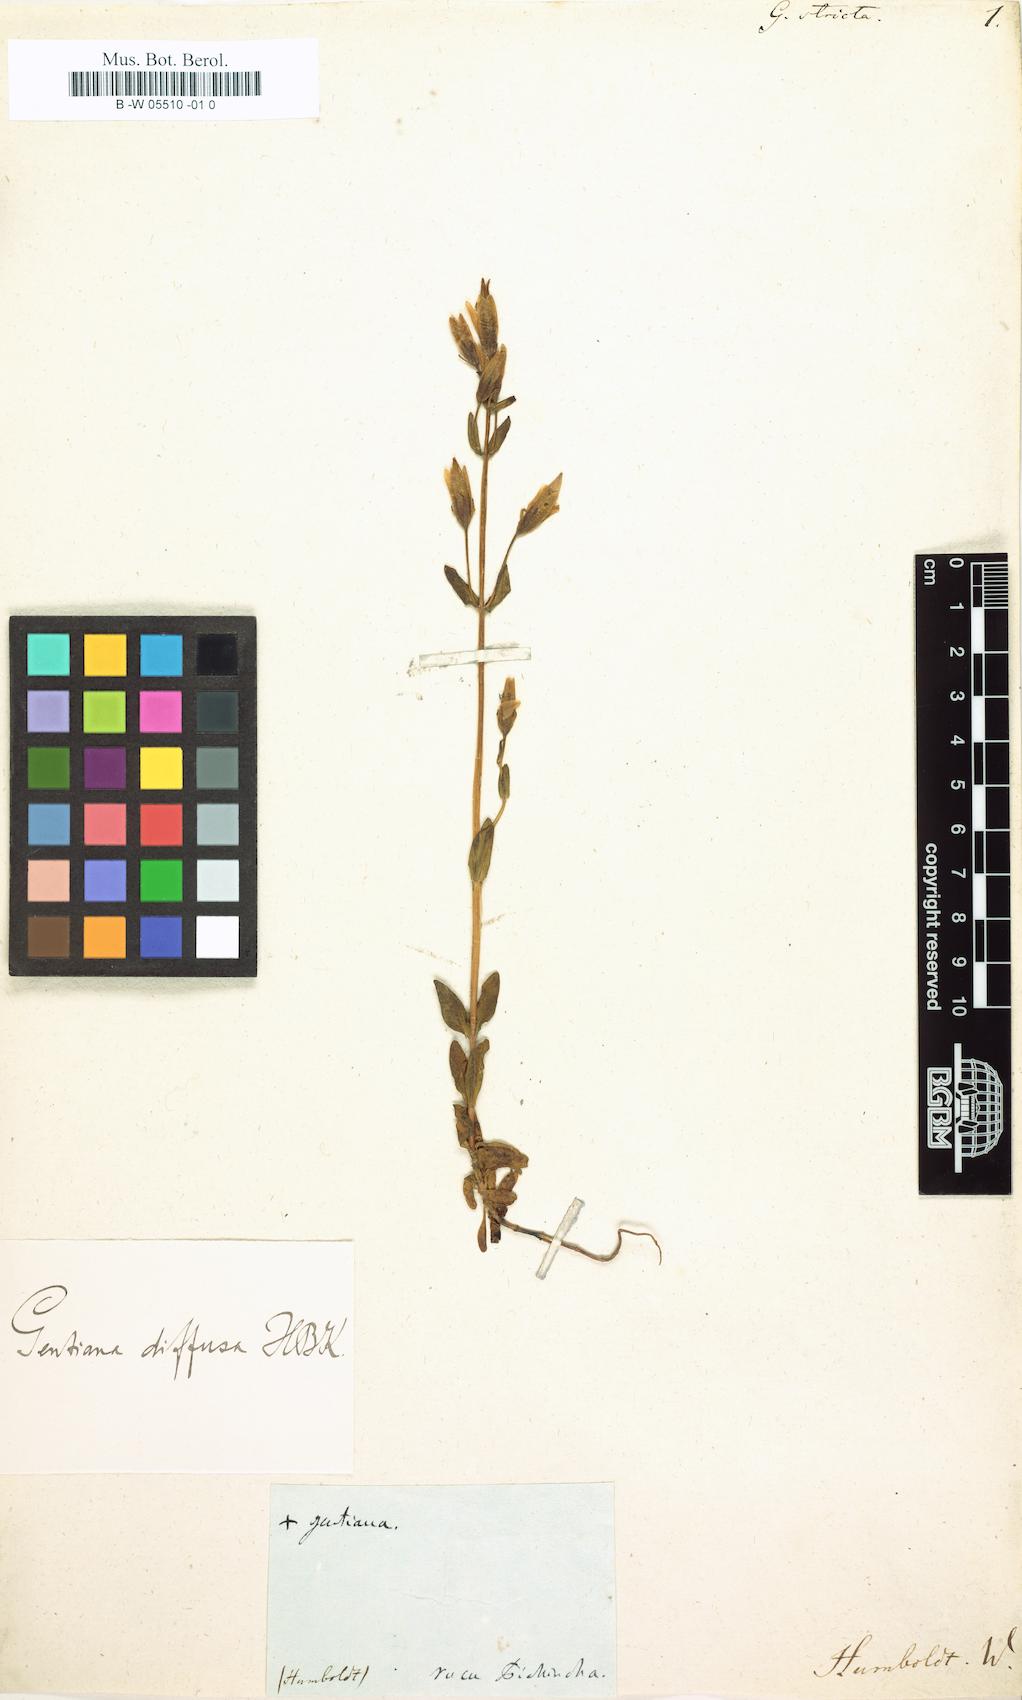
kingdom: Plantae
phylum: Tracheophyta
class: Magnoliopsida
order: Gentianales
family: Gentianaceae
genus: Gentianella
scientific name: Gentianella rapunculoides
